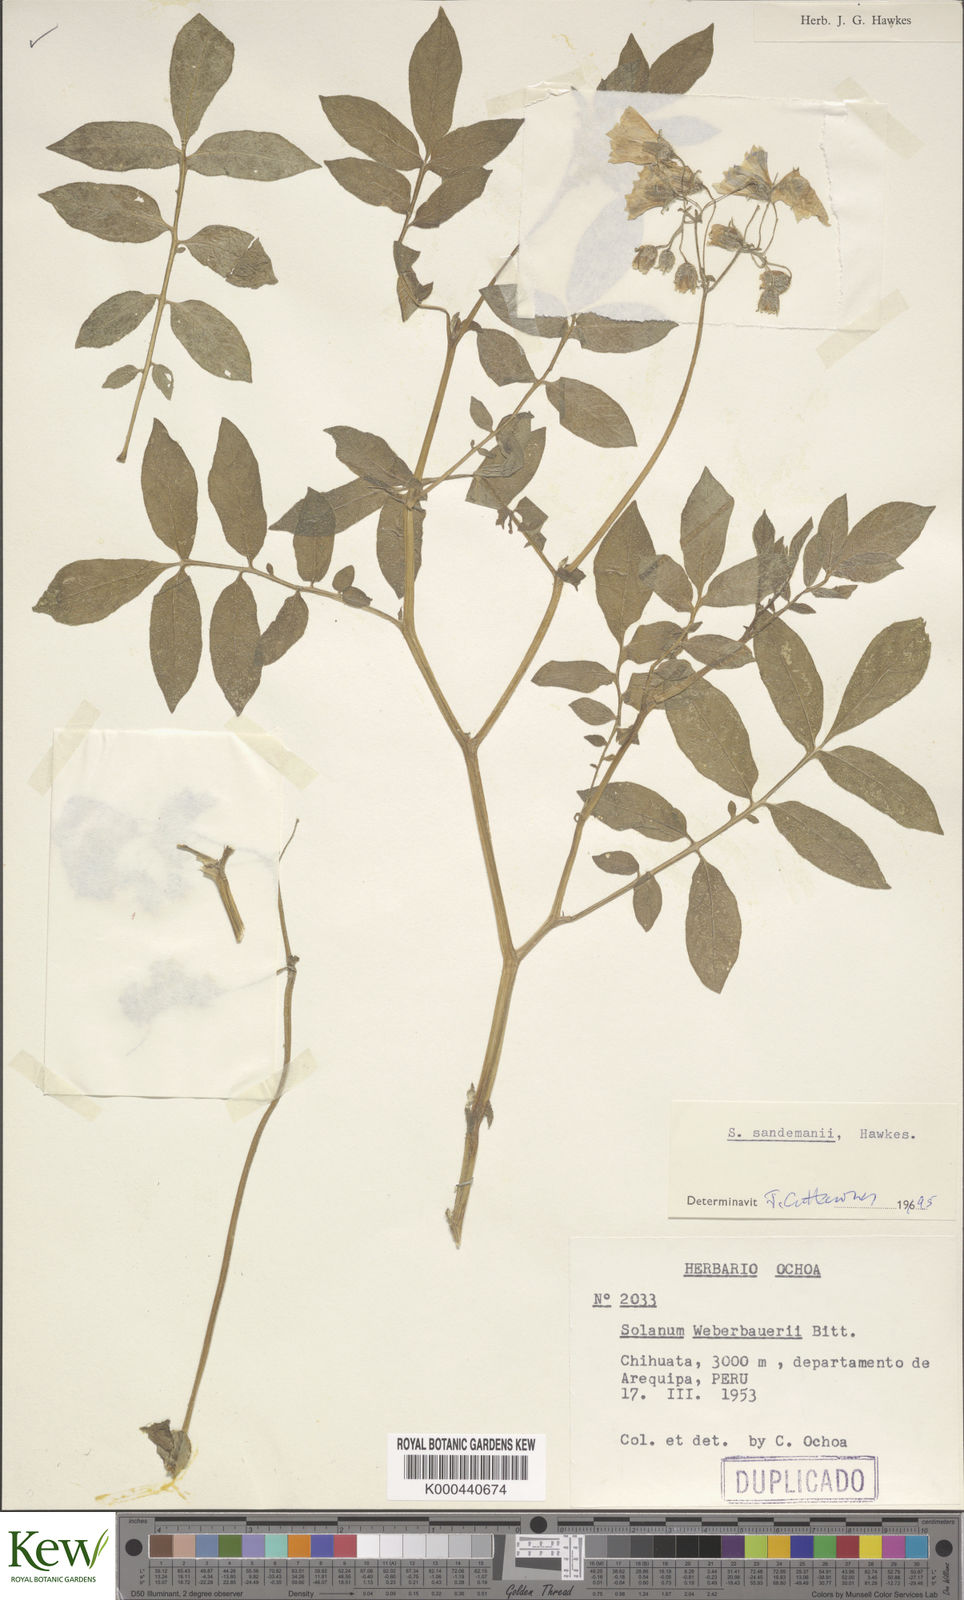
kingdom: Plantae
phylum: Tracheophyta
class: Magnoliopsida
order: Solanales
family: Solanaceae
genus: Solanum
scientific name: Solanum medians
